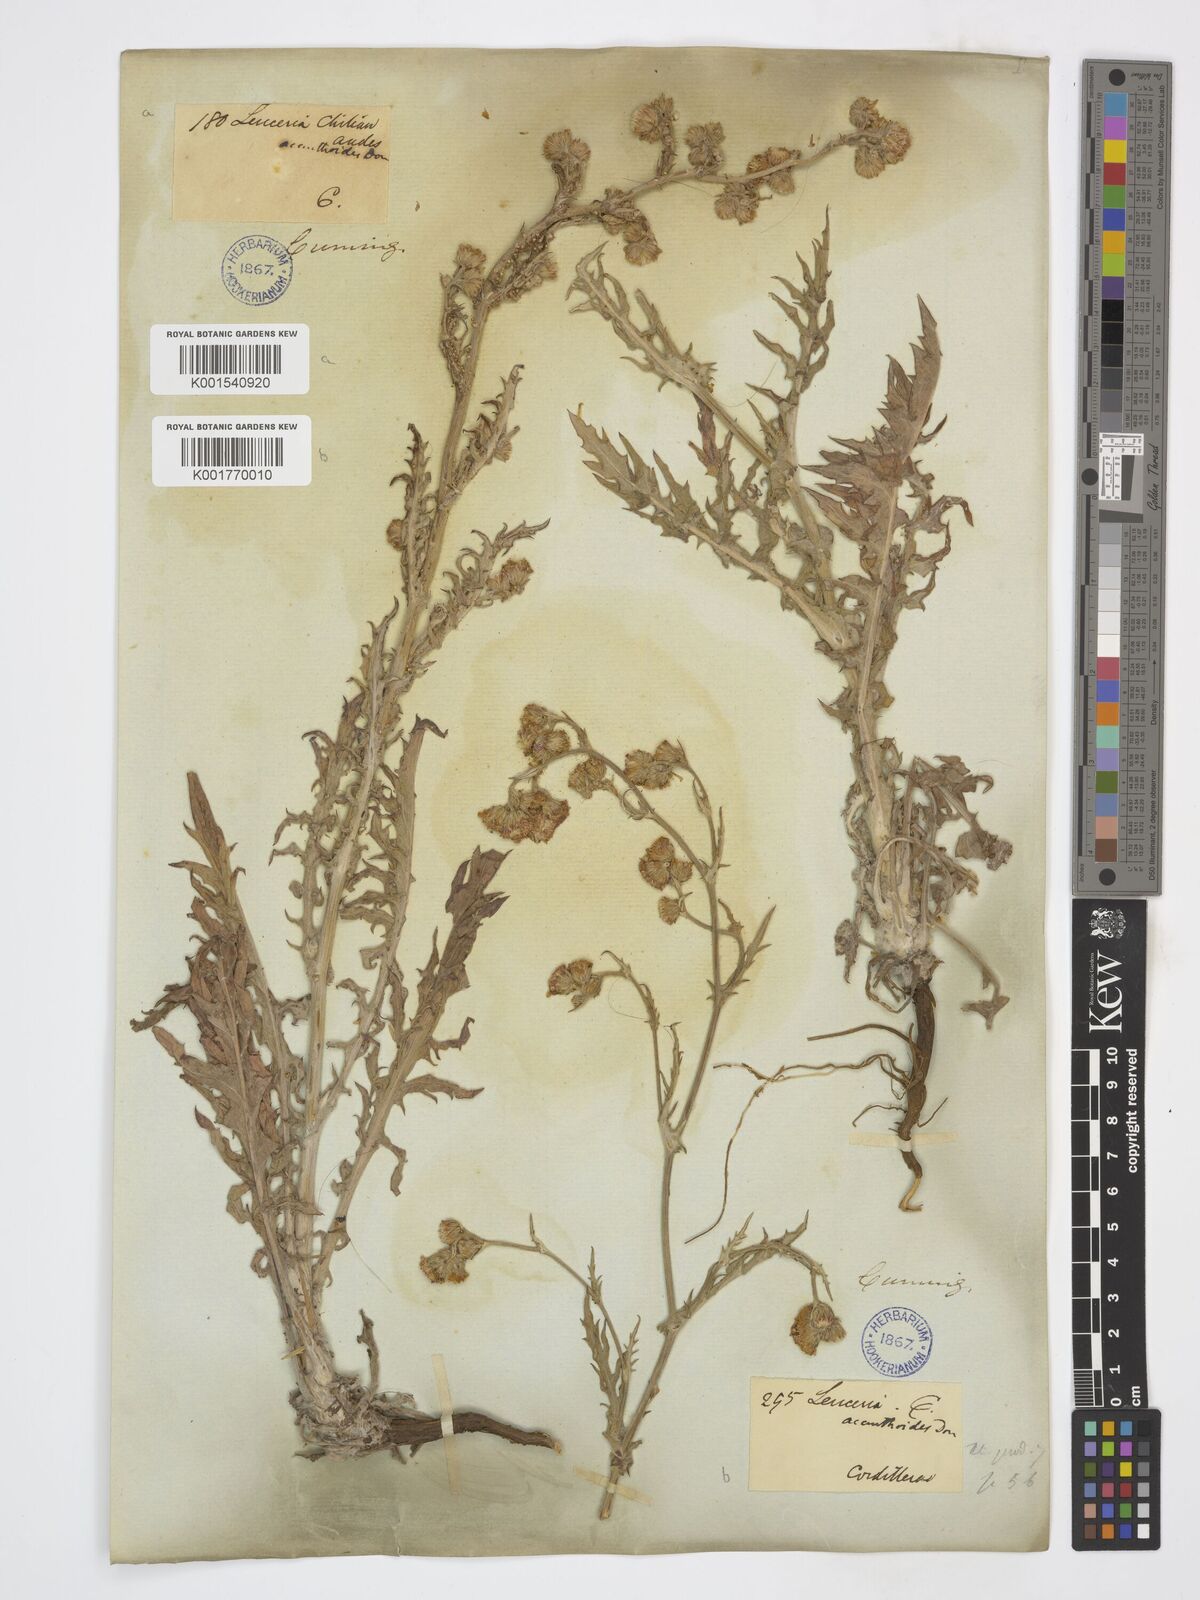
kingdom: Plantae
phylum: Tracheophyta
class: Magnoliopsida
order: Asterales
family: Asteraceae
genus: Leucheria
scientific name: Leucheria hieracioides
